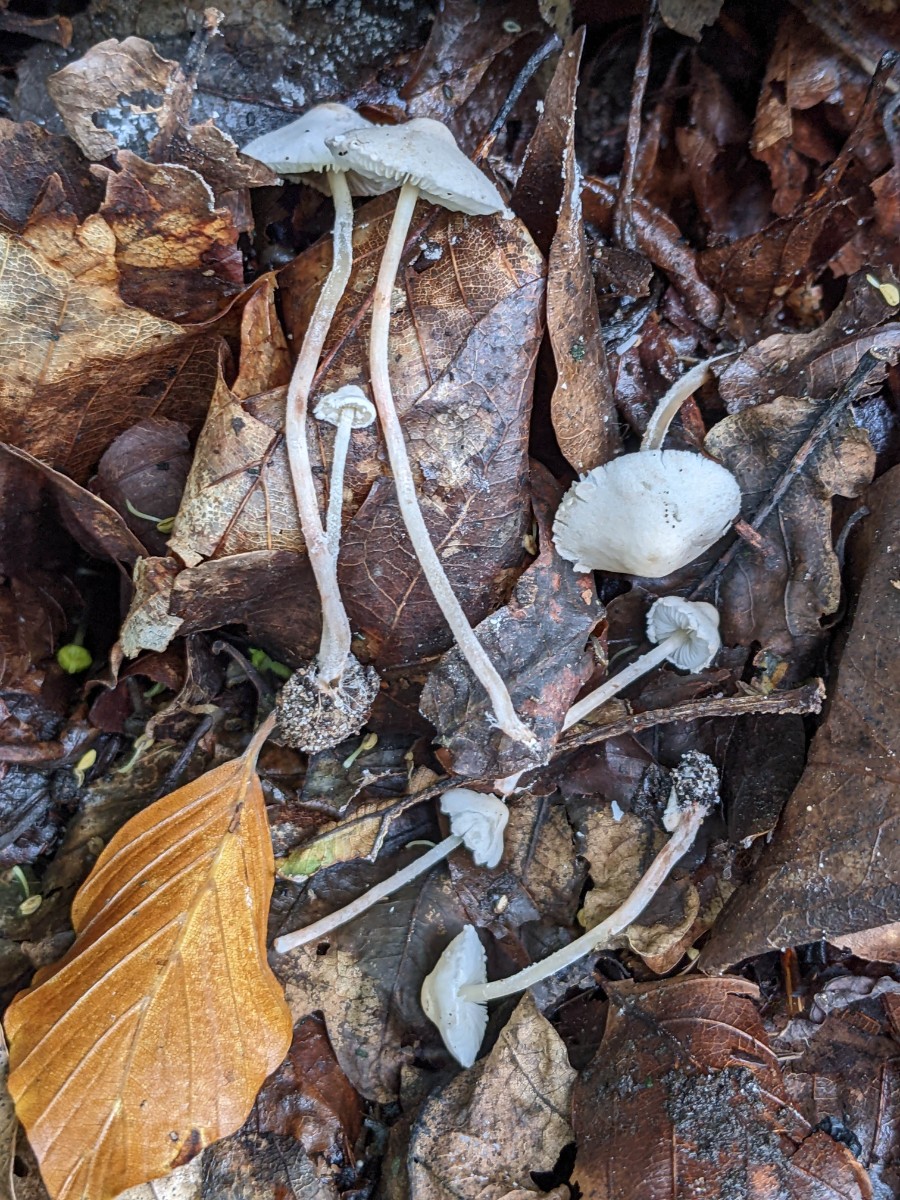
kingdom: Fungi
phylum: Basidiomycota
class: Agaricomycetes
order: Agaricales
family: Agaricaceae
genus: Cystolepiota
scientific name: Cystolepiota seminuda
